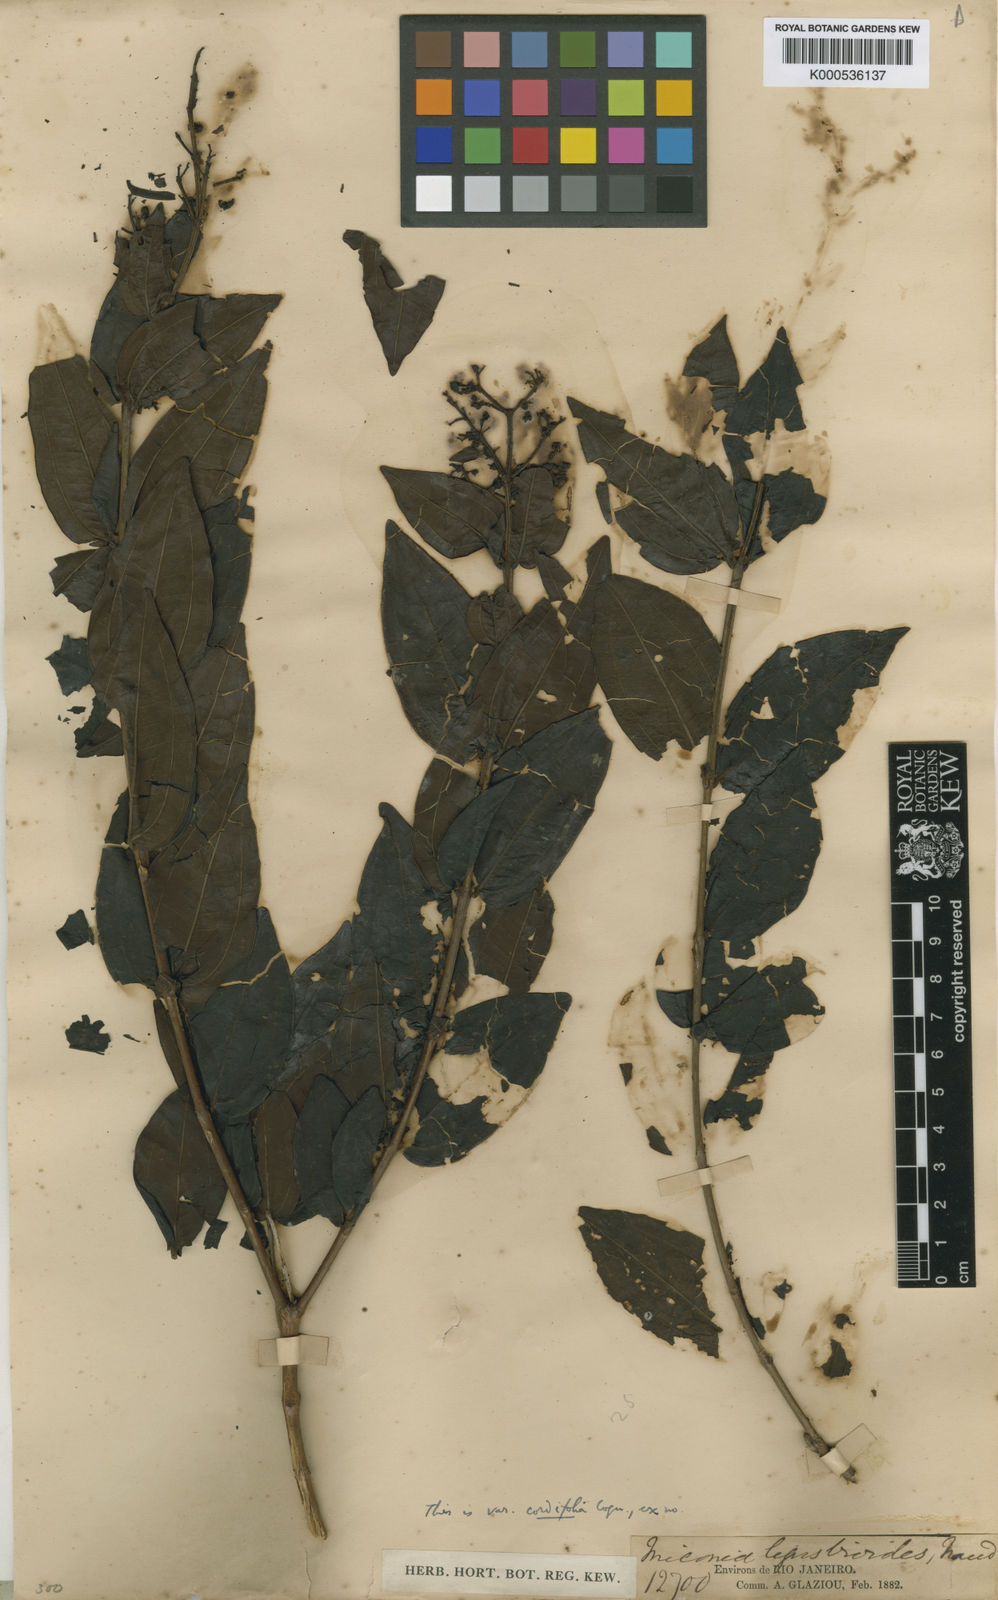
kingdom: Plantae
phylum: Tracheophyta
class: Magnoliopsida
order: Myrtales
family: Melastomataceae
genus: Miconia
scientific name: Miconia ligustroides
